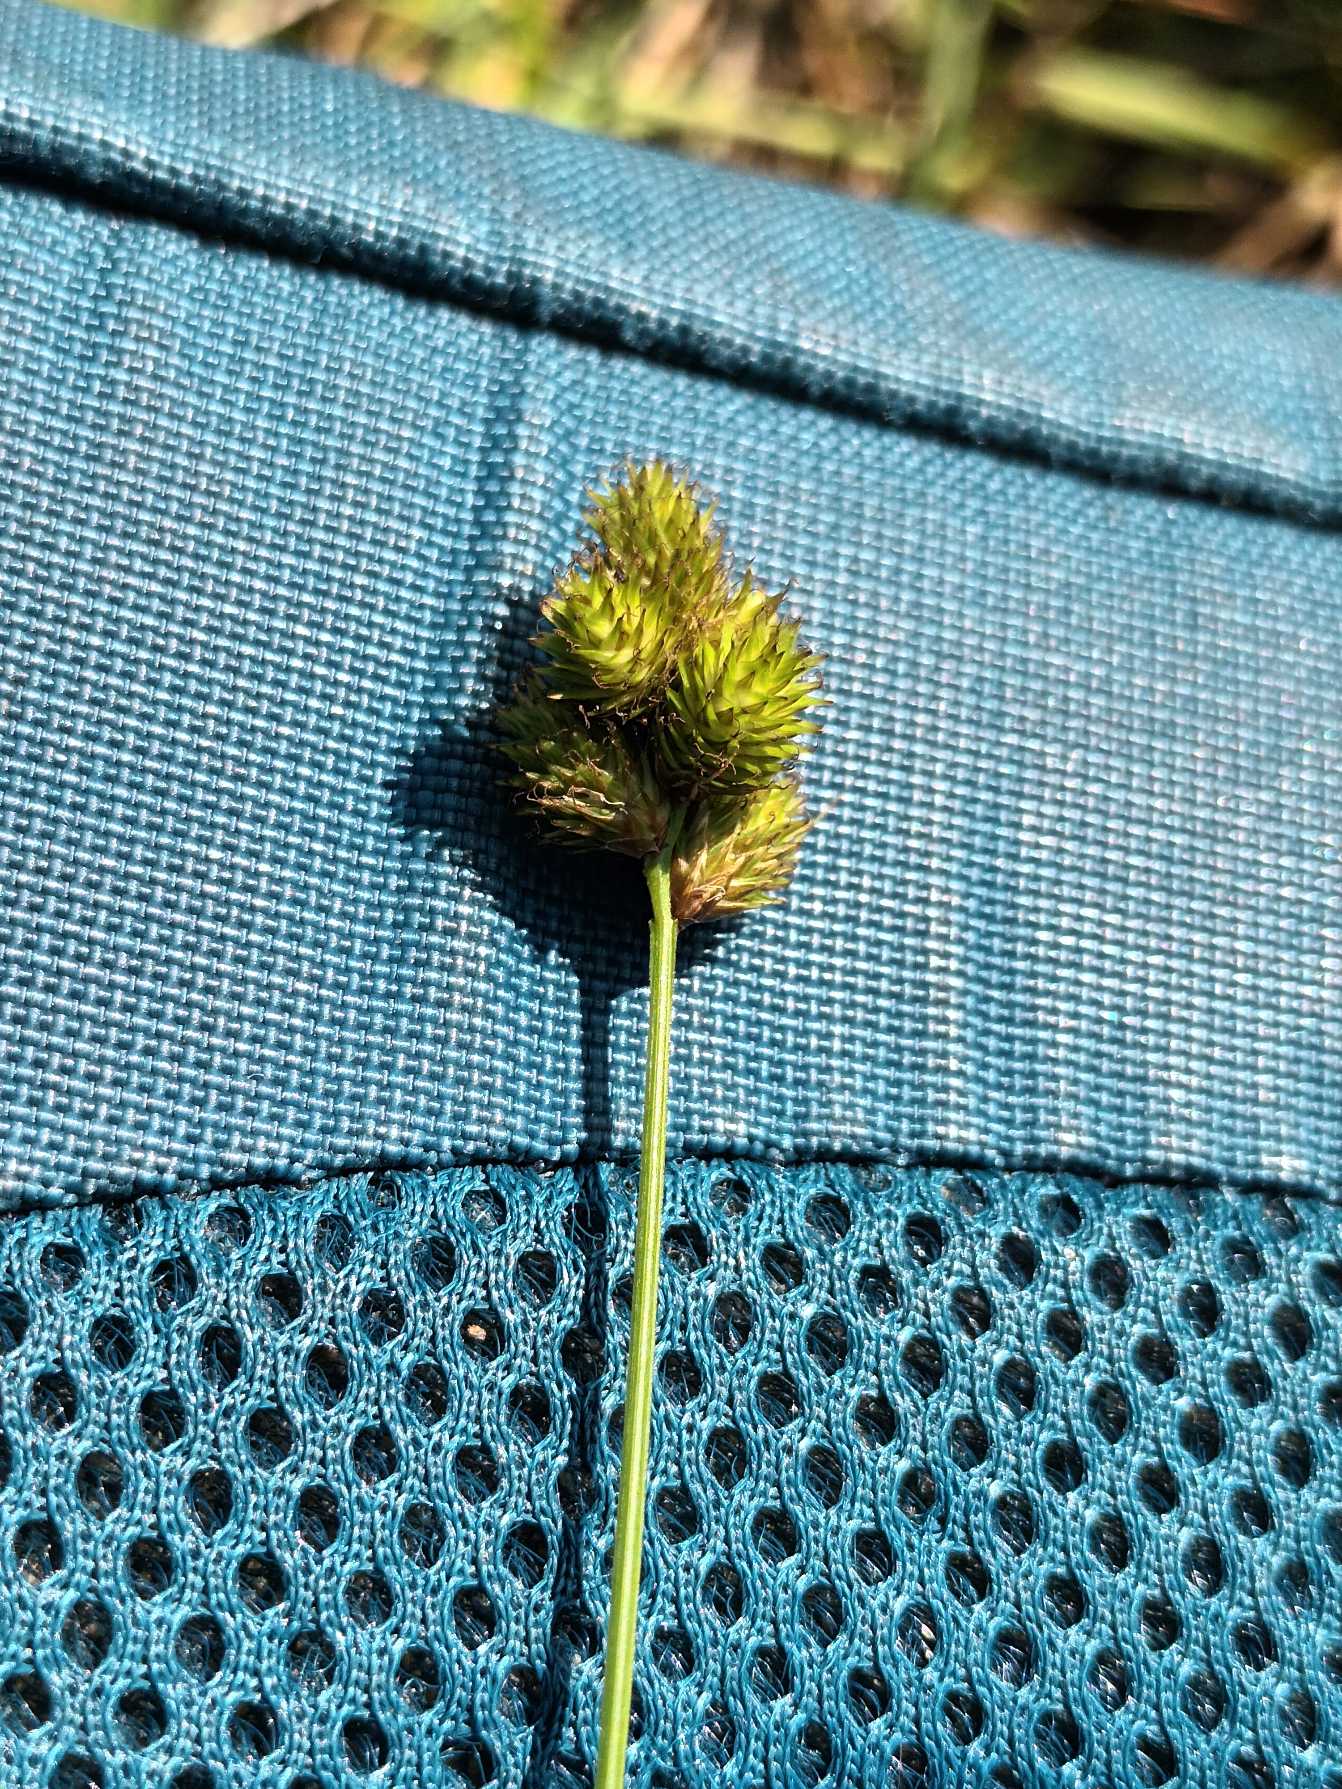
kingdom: Plantae
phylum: Tracheophyta
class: Liliopsida
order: Poales
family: Cyperaceae
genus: Carex
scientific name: Carex bebbii
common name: Pyramide-star
